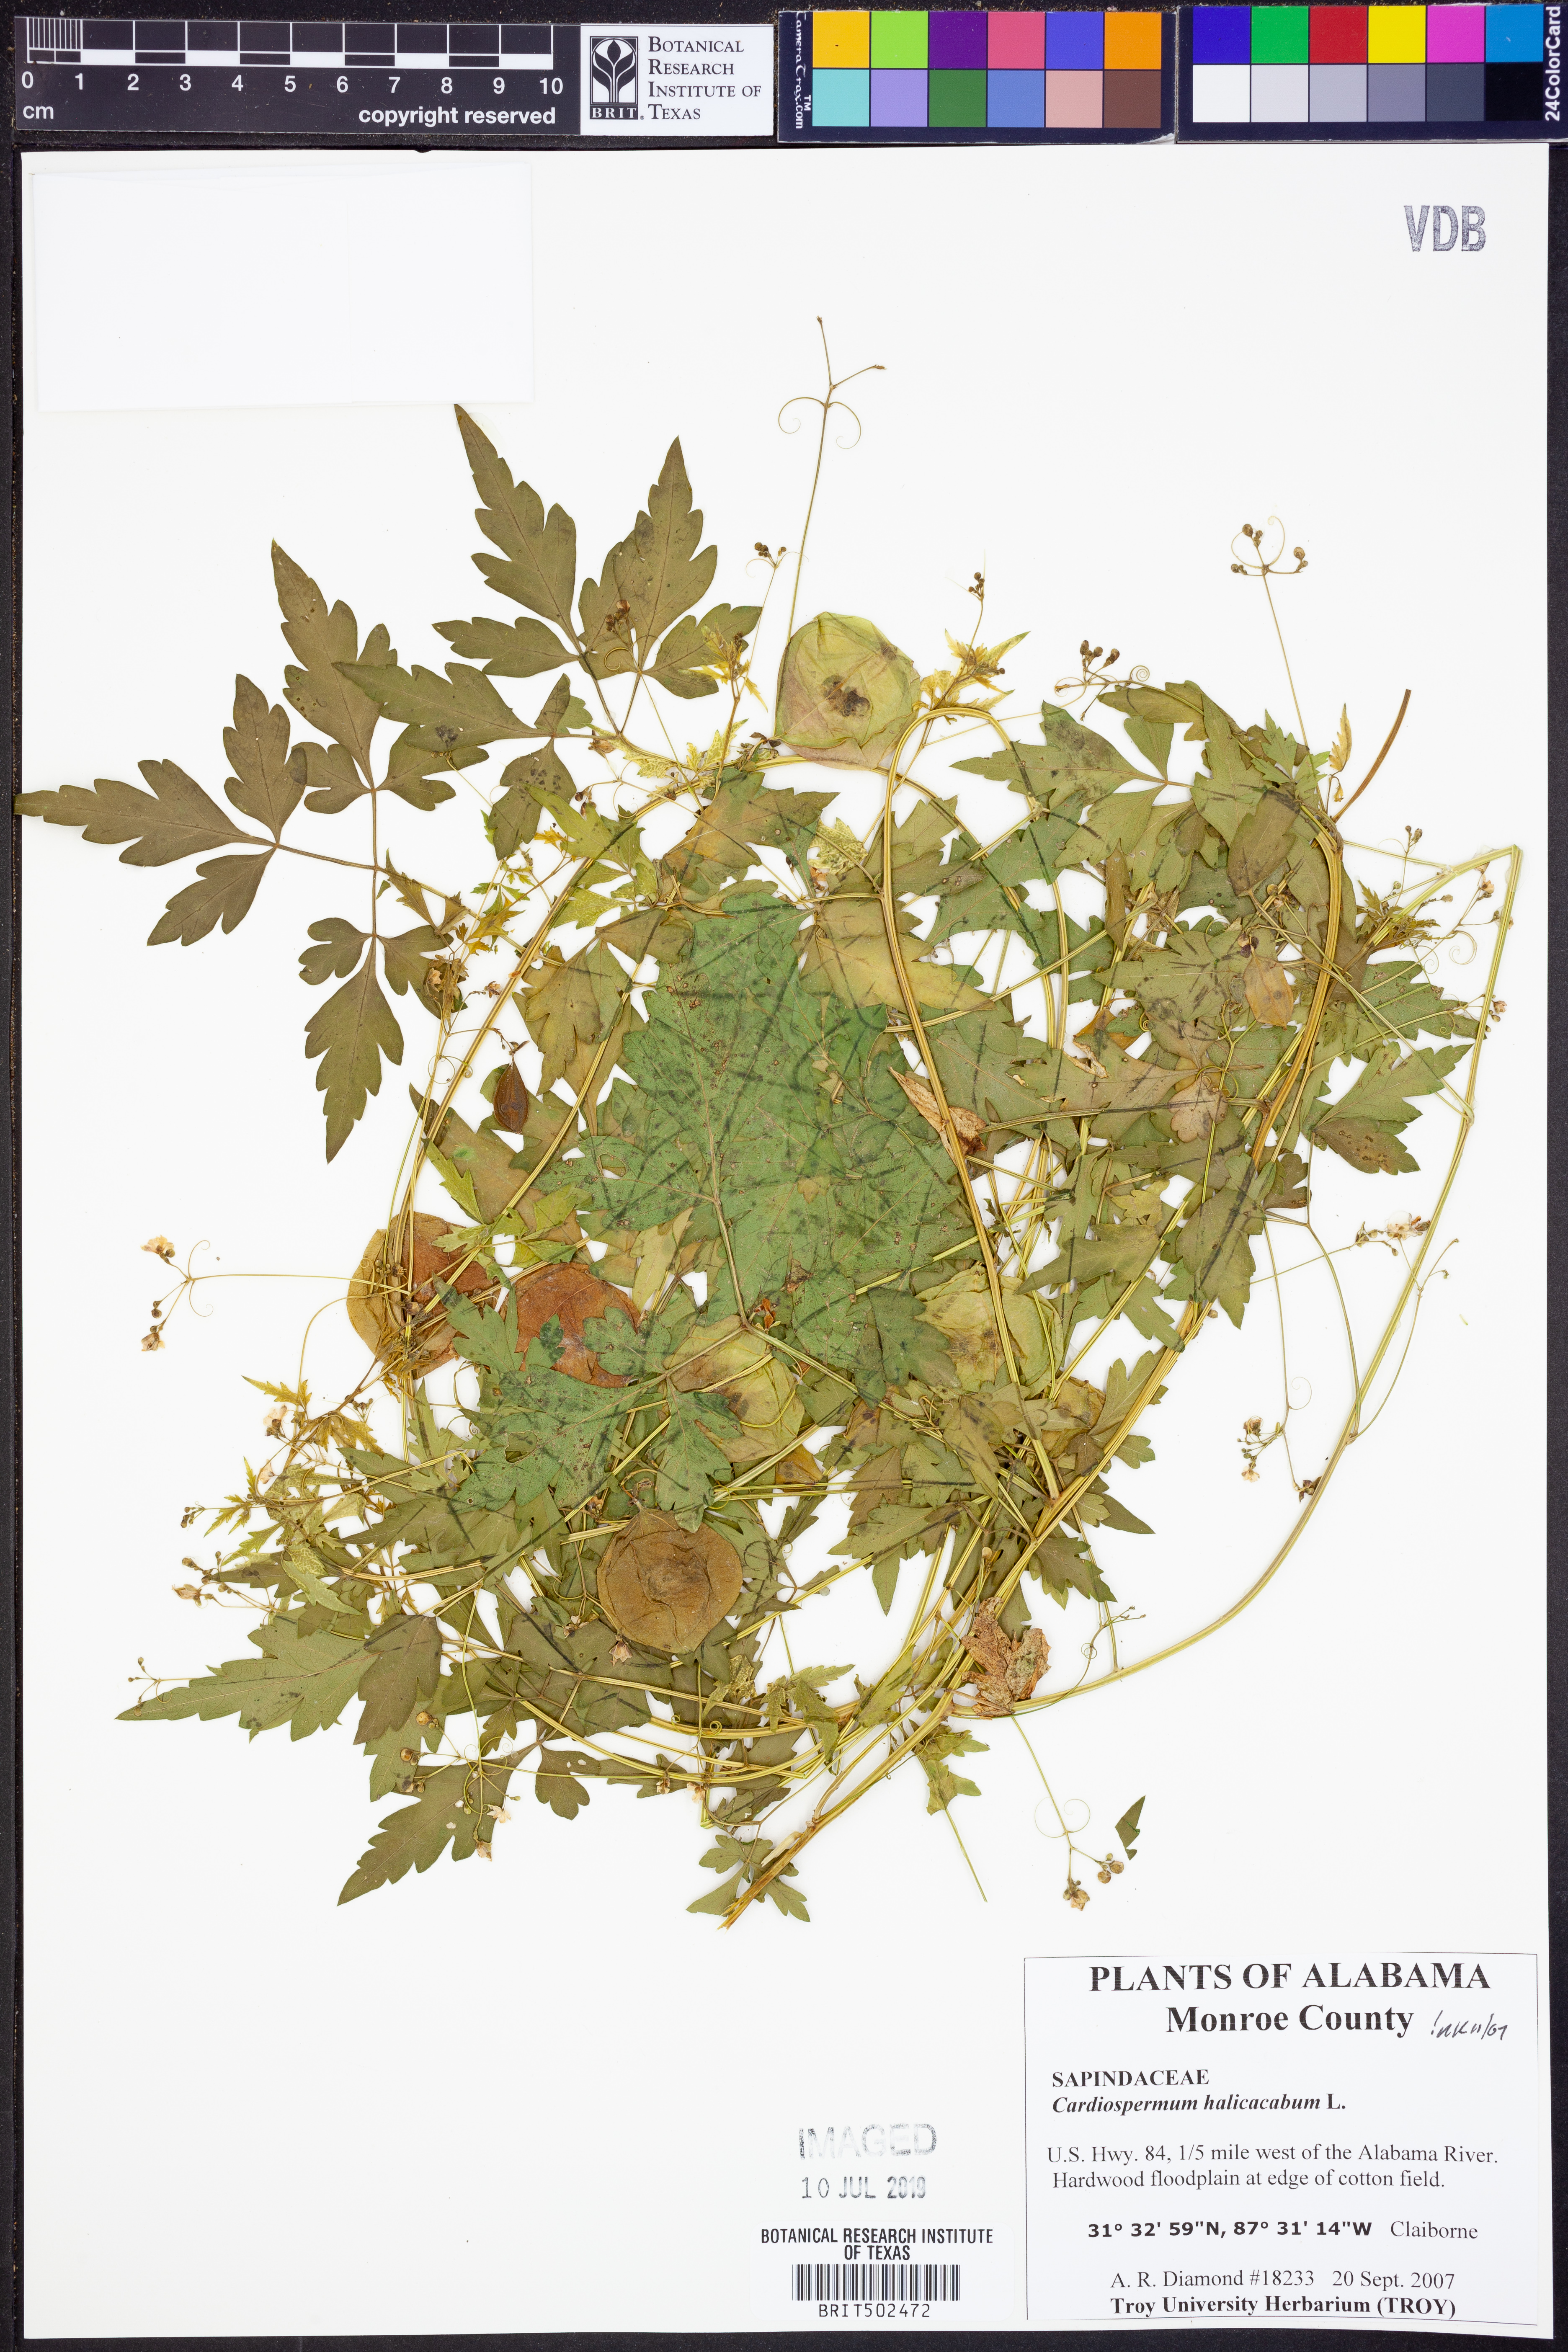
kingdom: Plantae
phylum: Tracheophyta
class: Magnoliopsida
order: Sapindales
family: Sapindaceae
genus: Cardiospermum
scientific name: Cardiospermum halicacabum
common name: Balloon vine
